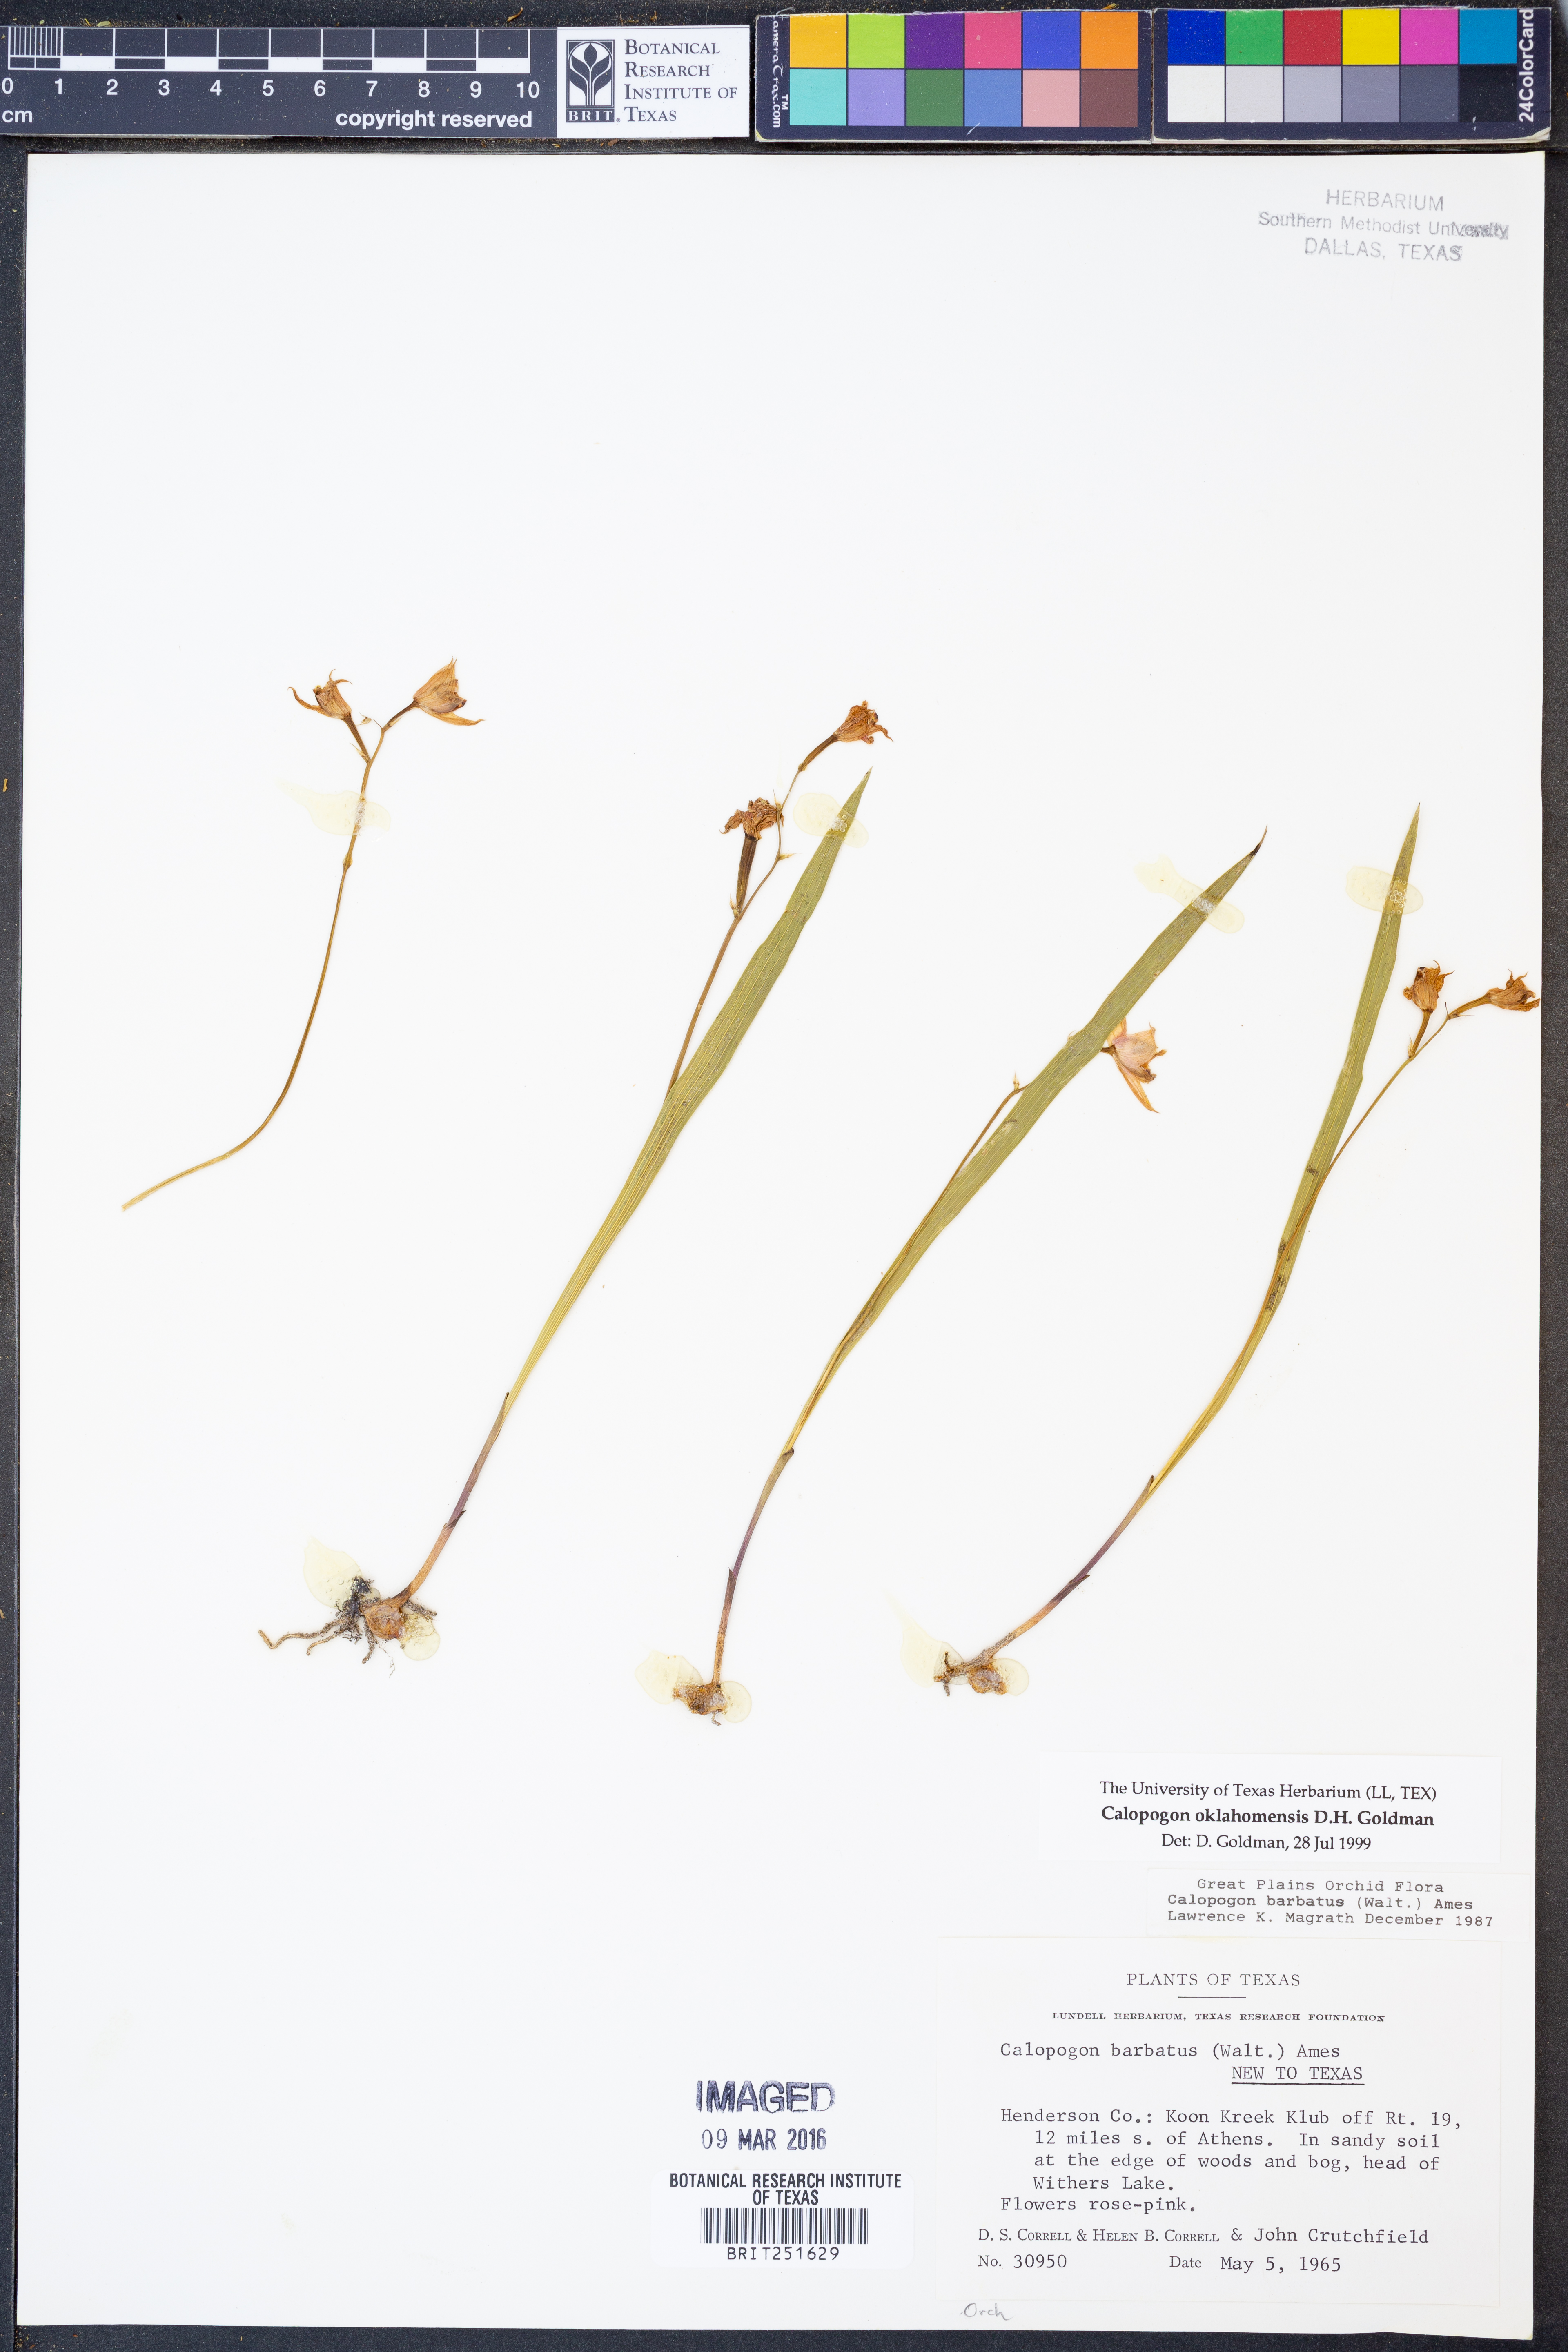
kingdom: Plantae
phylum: Tracheophyta
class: Liliopsida
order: Asparagales
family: Orchidaceae
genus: Calopogon
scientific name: Calopogon oklahomensis
